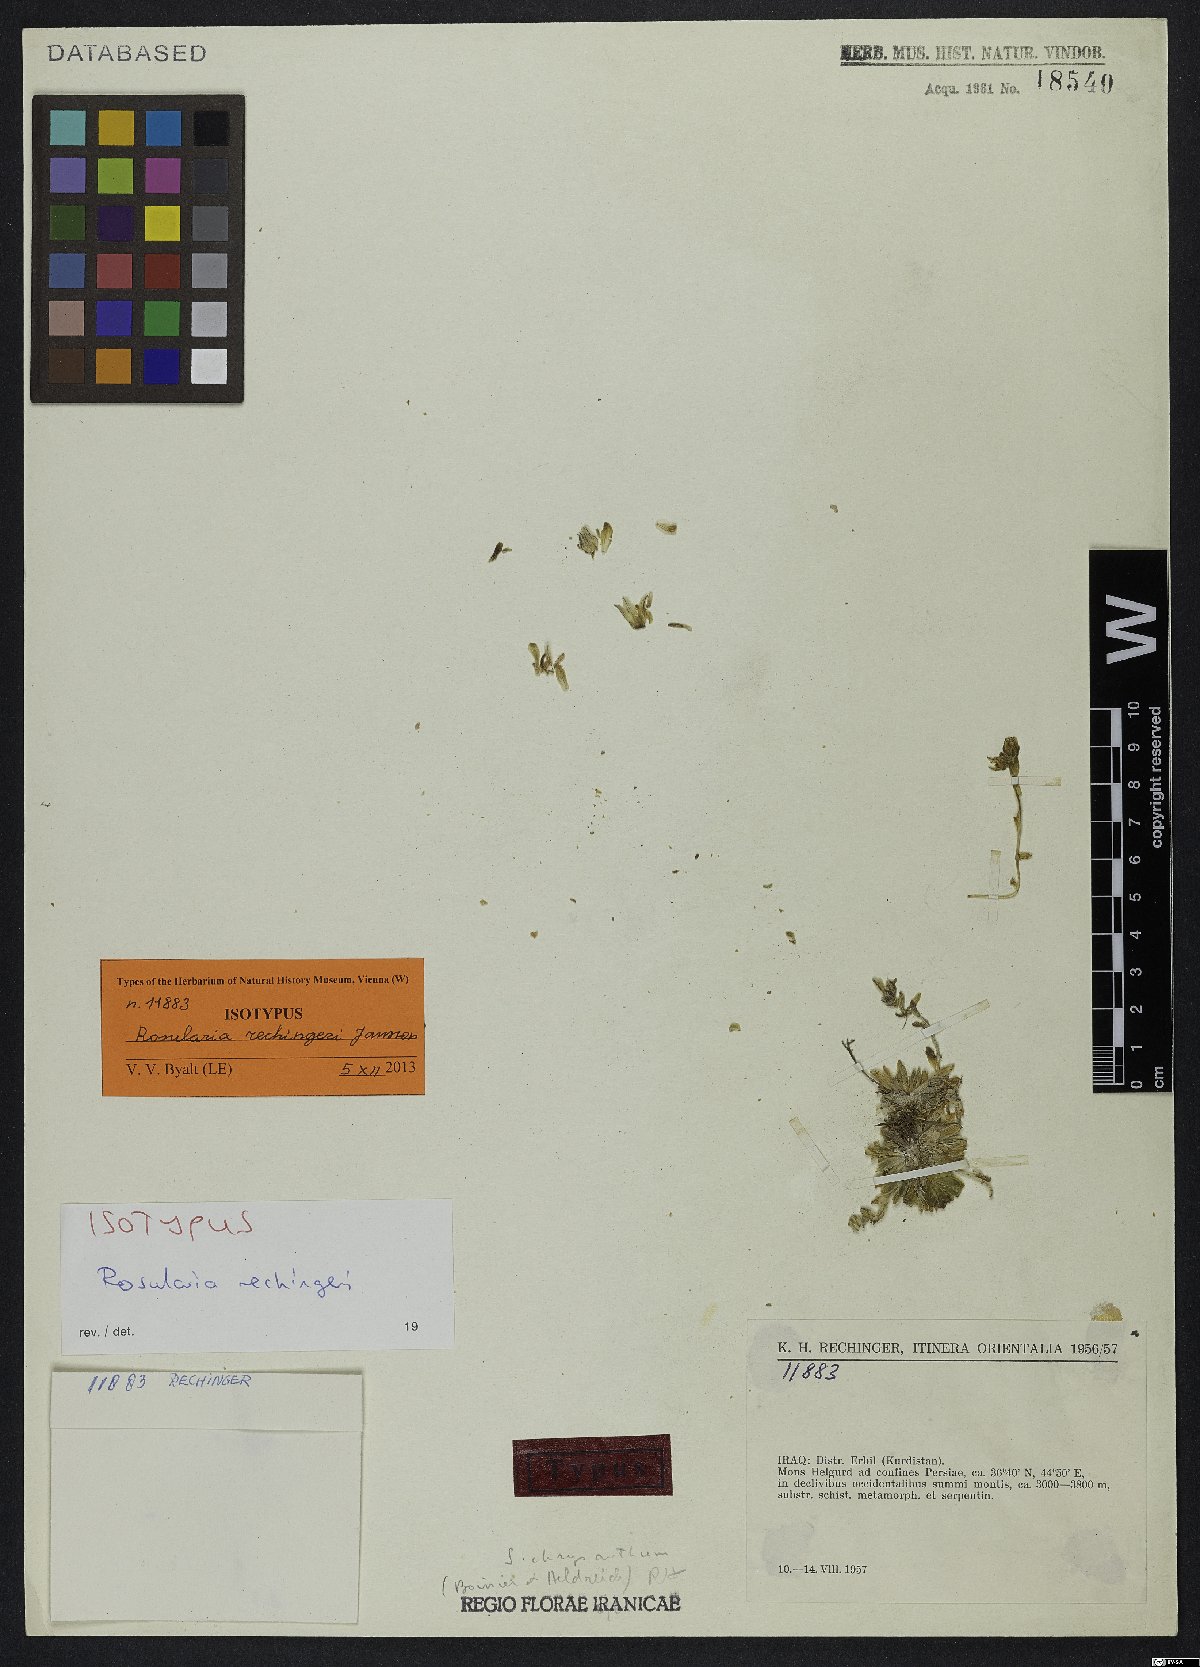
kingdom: Plantae
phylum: Tracheophyta
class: Magnoliopsida
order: Saxifragales
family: Crassulaceae
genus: Prometheum
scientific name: Prometheum rechingeri
